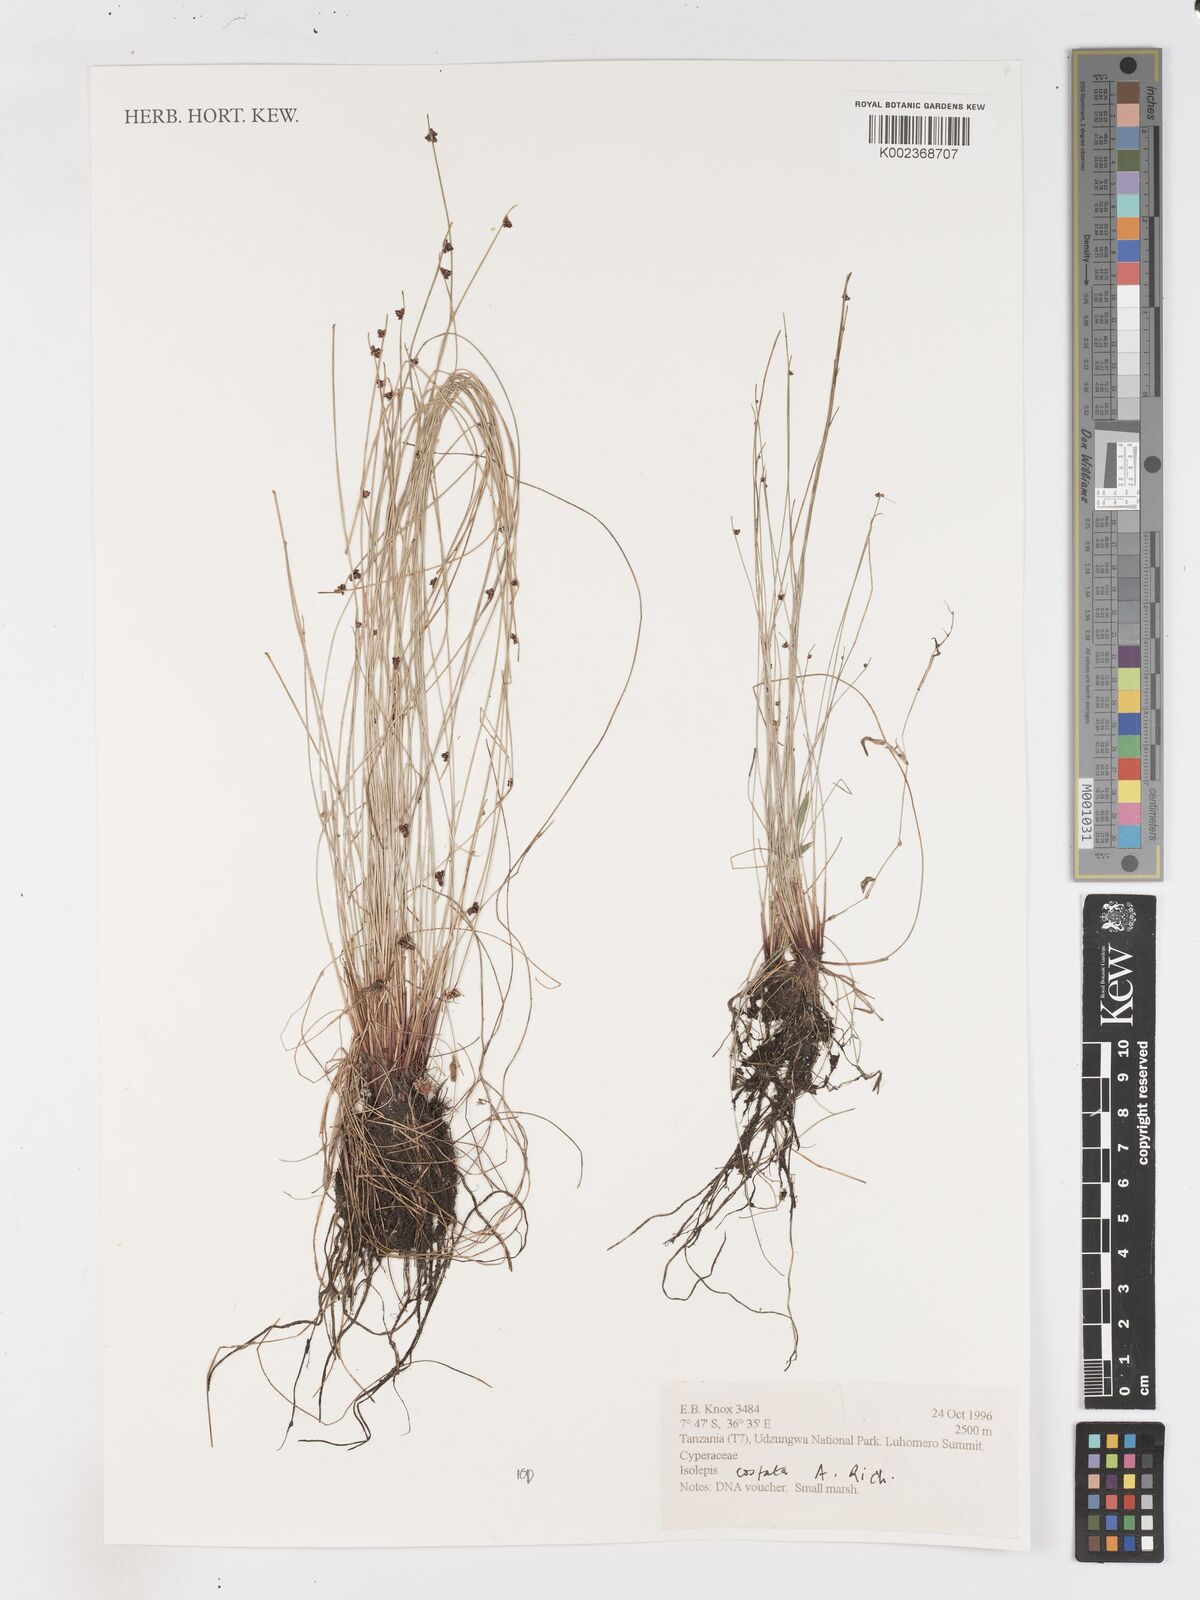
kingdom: Plantae
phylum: Tracheophyta
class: Liliopsida
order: Poales
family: Cyperaceae
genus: Isolepis
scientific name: Isolepis costata
